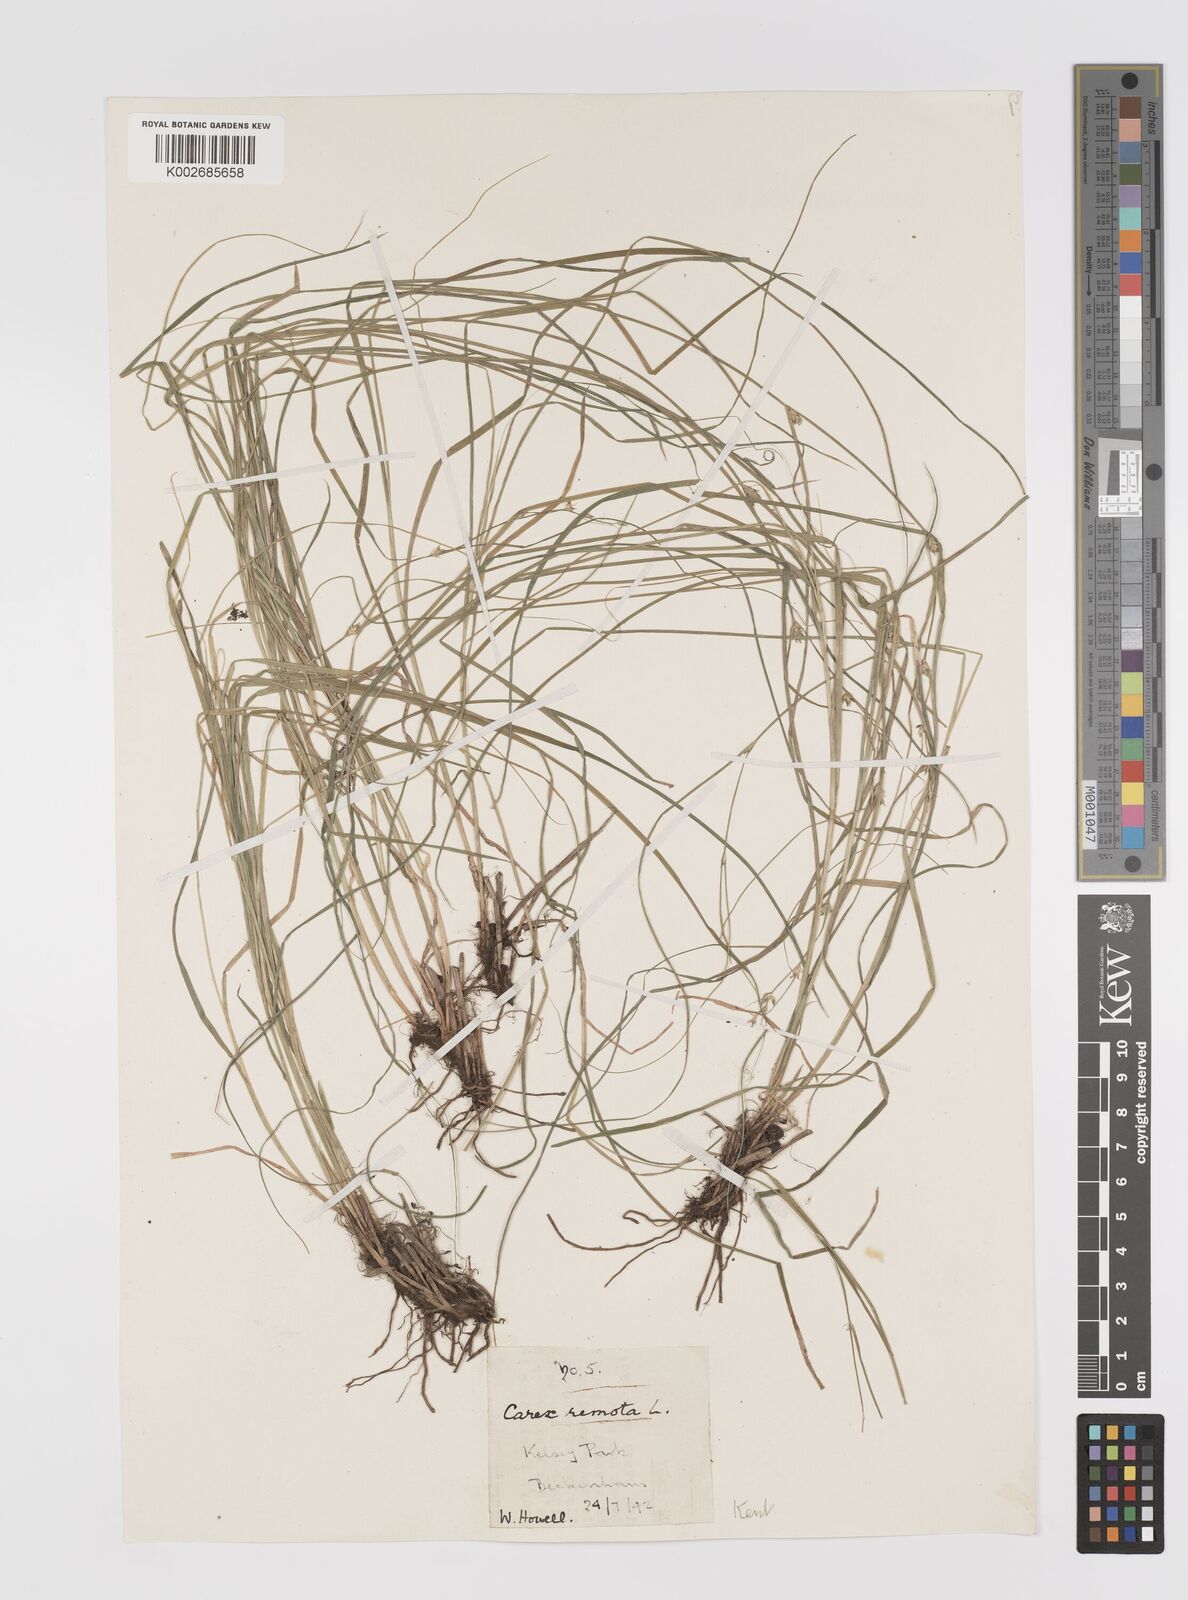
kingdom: Plantae
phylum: Tracheophyta
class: Liliopsida
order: Poales
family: Cyperaceae
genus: Carex
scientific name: Carex balansae
